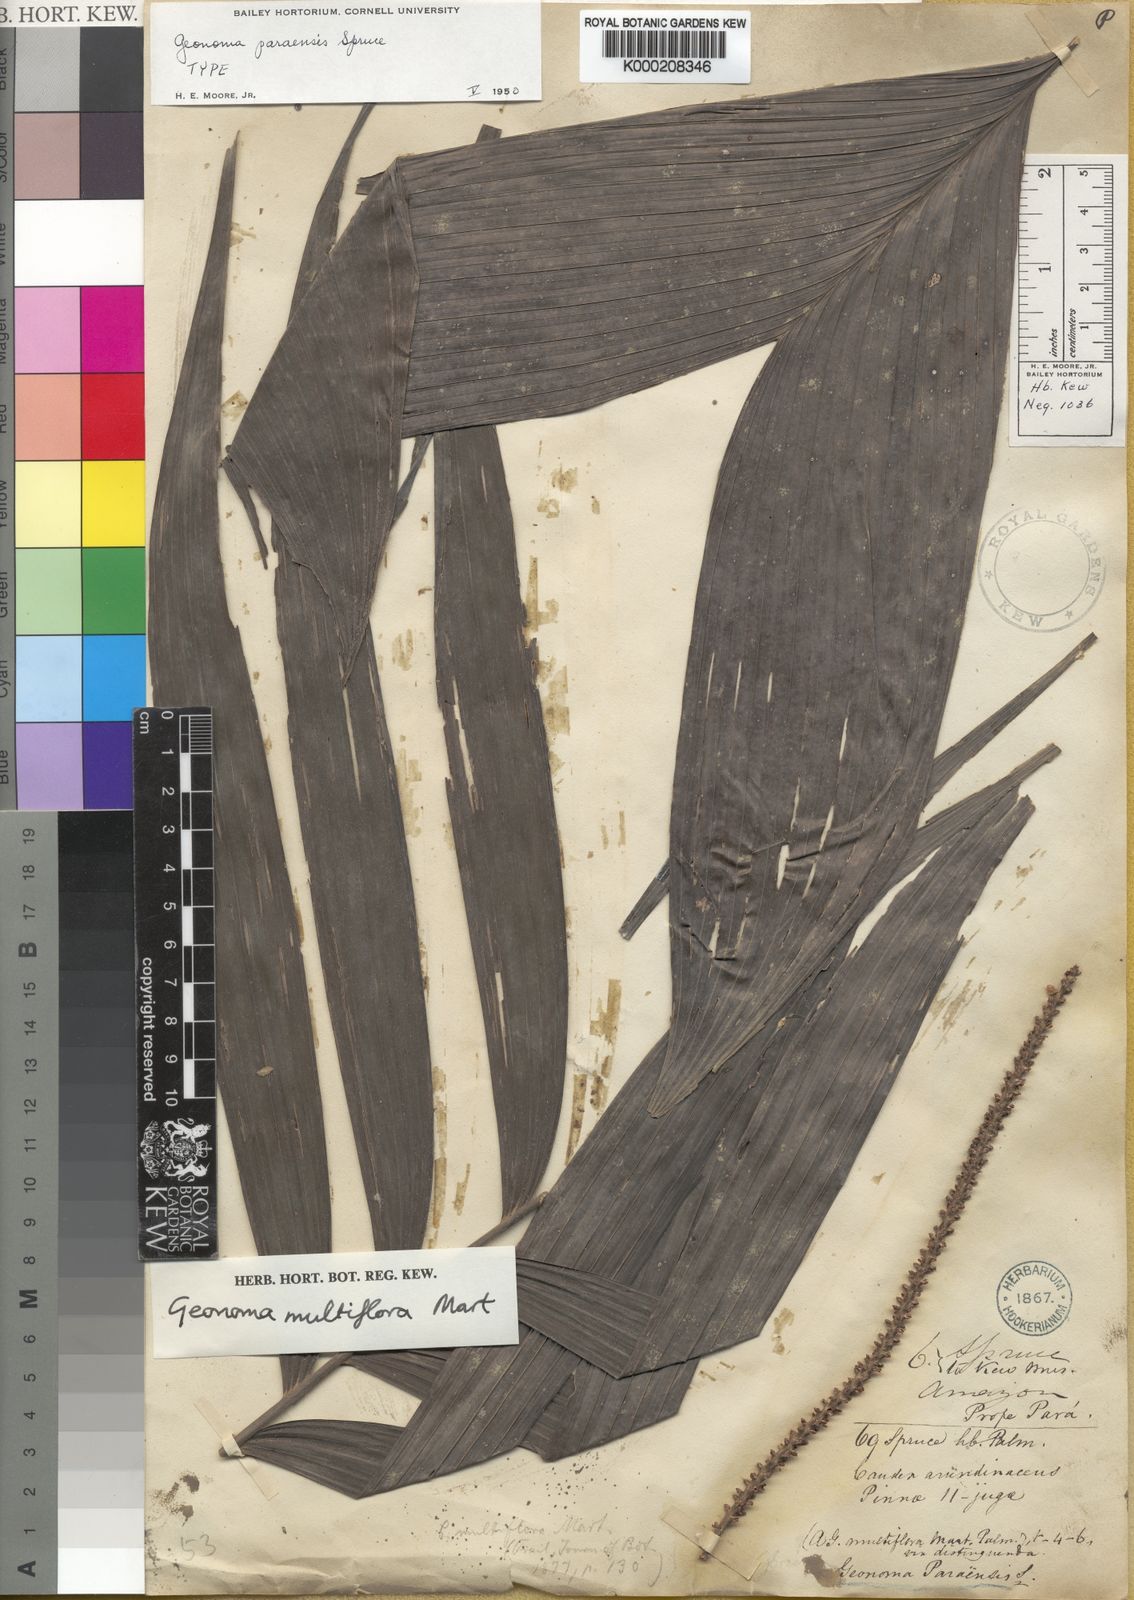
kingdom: Plantae
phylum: Tracheophyta
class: Liliopsida
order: Arecales
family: Arecaceae
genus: Geonoma
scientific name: Geonoma maxima
